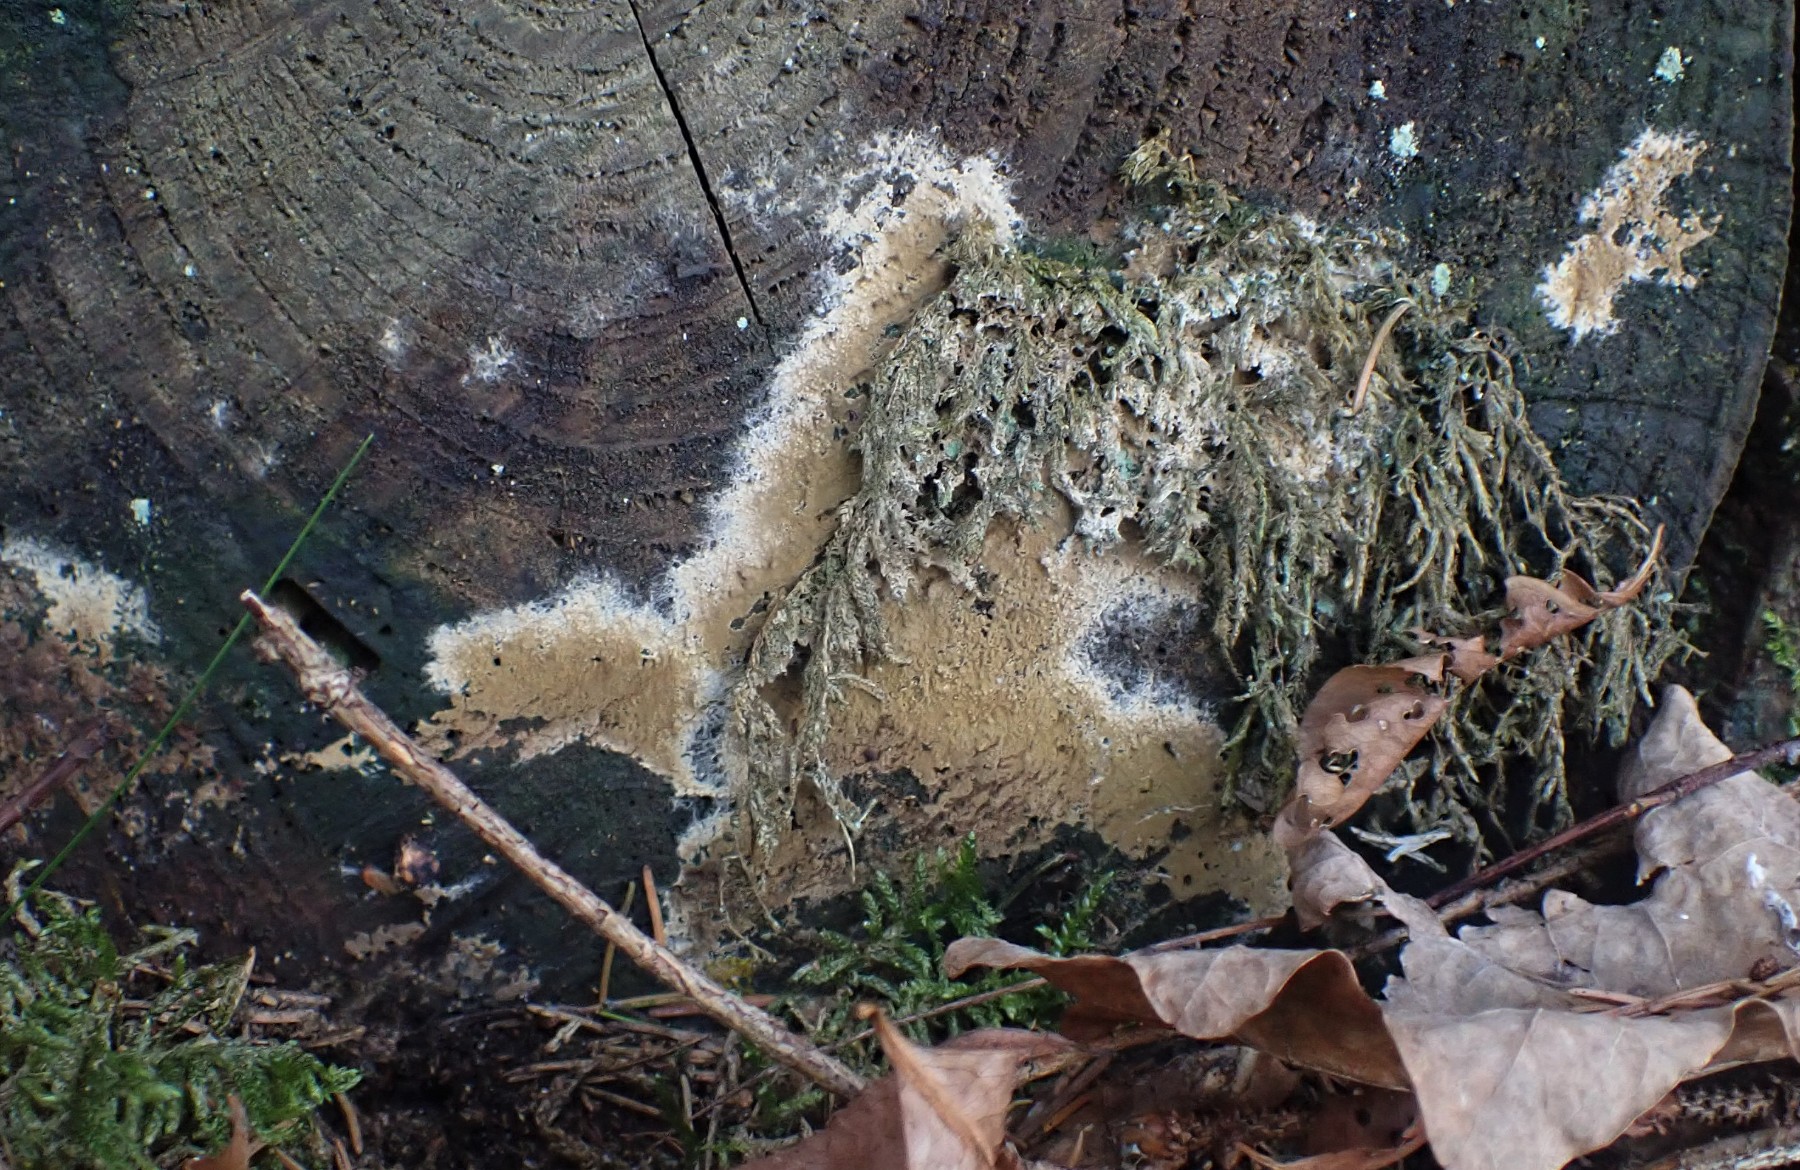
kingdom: Fungi
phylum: Basidiomycota
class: Agaricomycetes
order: Boletales
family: Coniophoraceae
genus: Coniophora
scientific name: Coniophora puteana
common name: gul tømmersvamp
